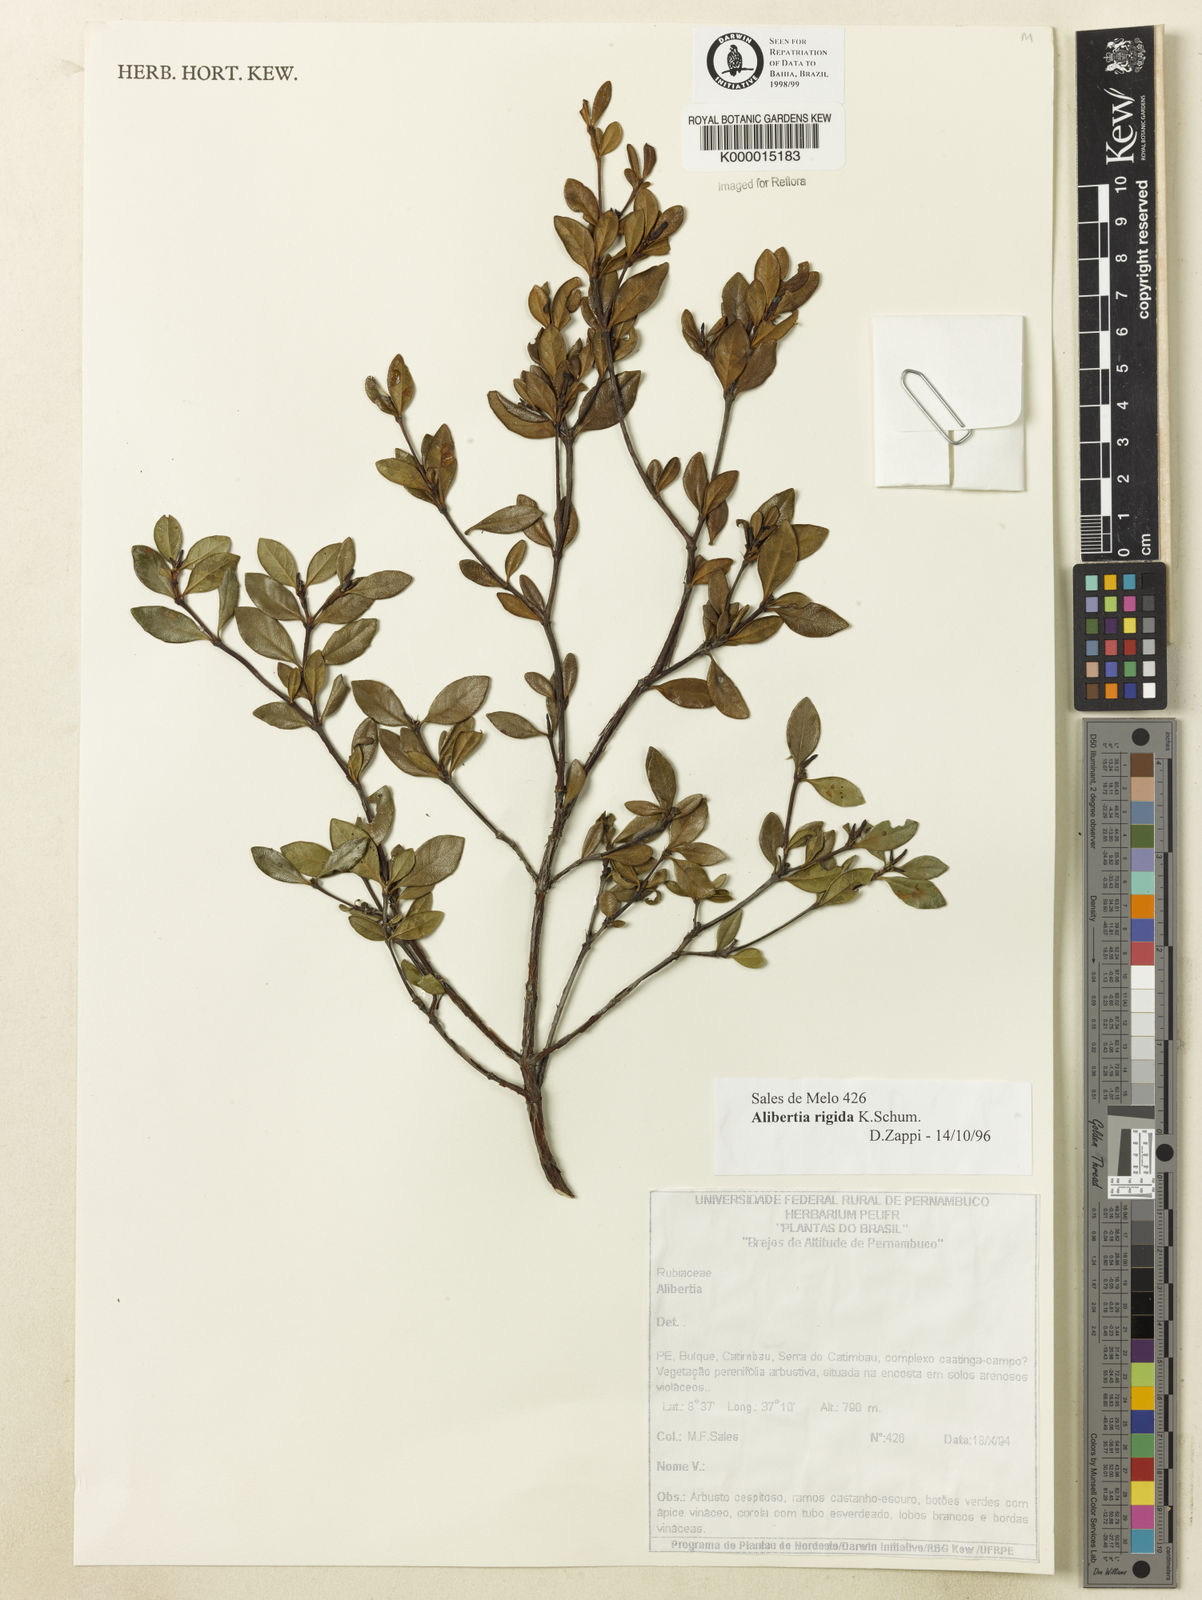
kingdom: Plantae
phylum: Tracheophyta
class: Magnoliopsida
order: Gentianales
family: Rubiaceae
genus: Cordiera
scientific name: Cordiera rigida
